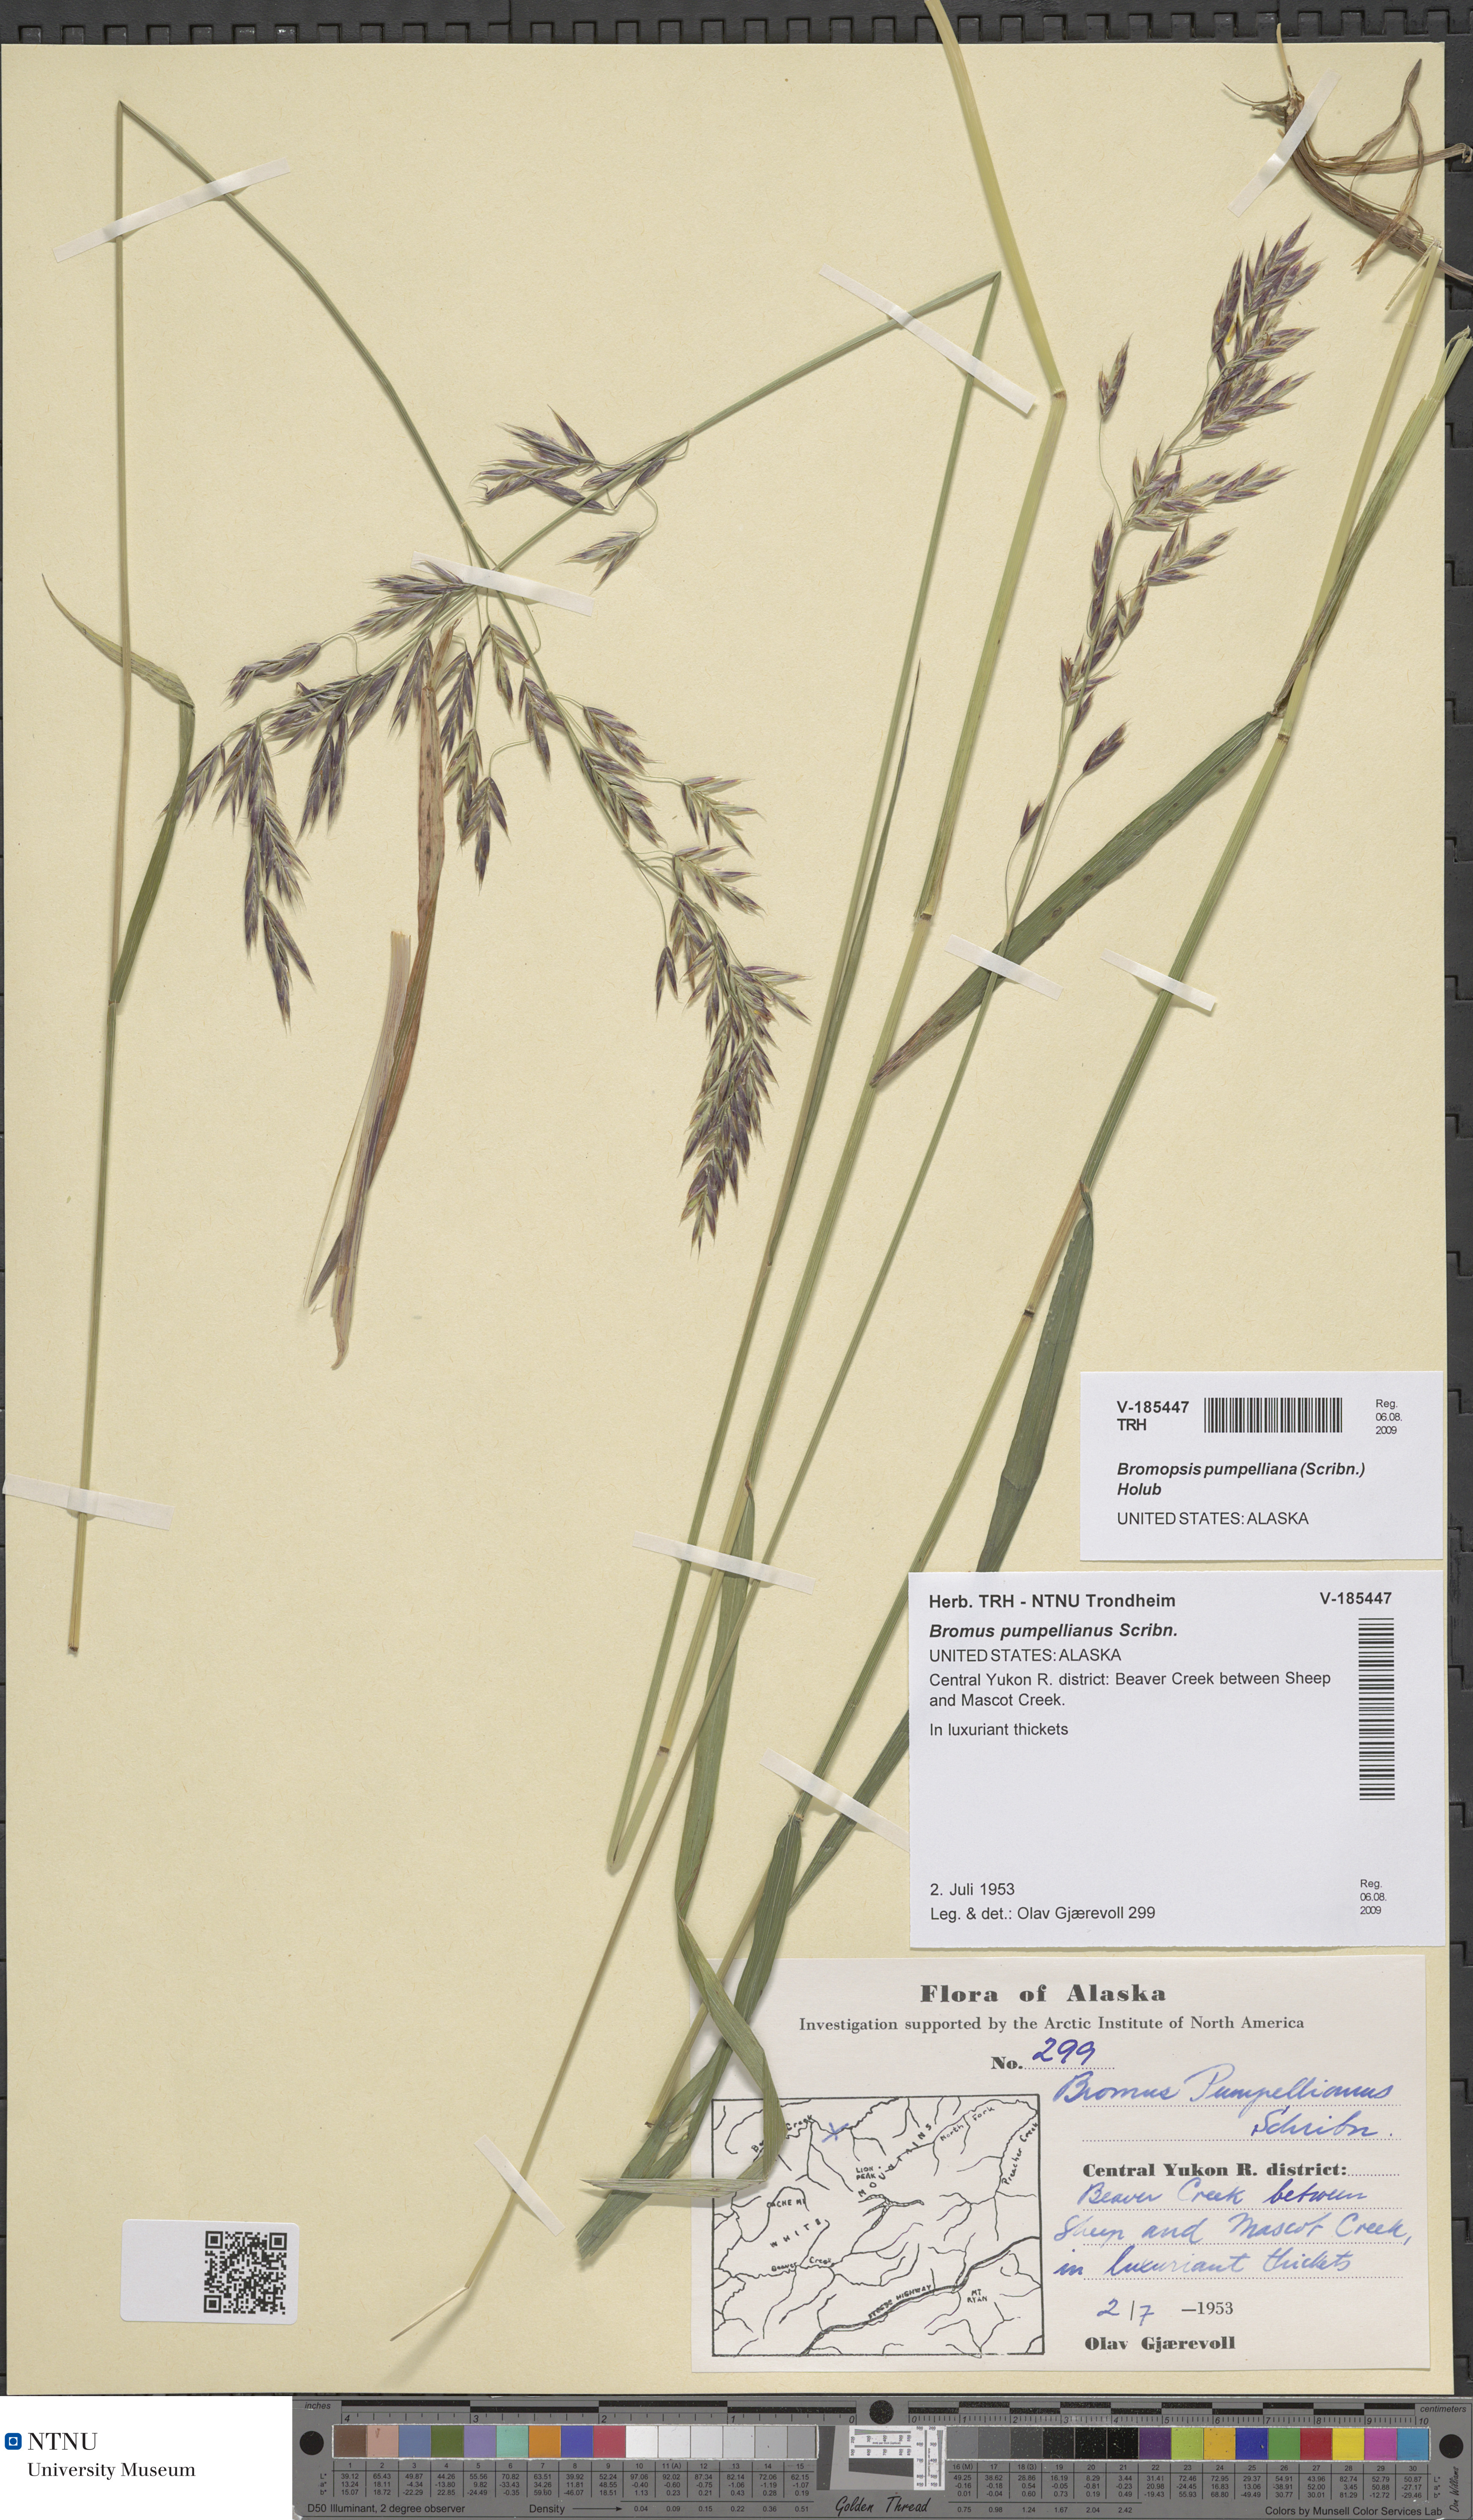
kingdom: Plantae
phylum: Tracheophyta
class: Liliopsida
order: Poales
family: Poaceae
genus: Bromus
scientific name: Bromus pumpellianus
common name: Pumpelly's brome
